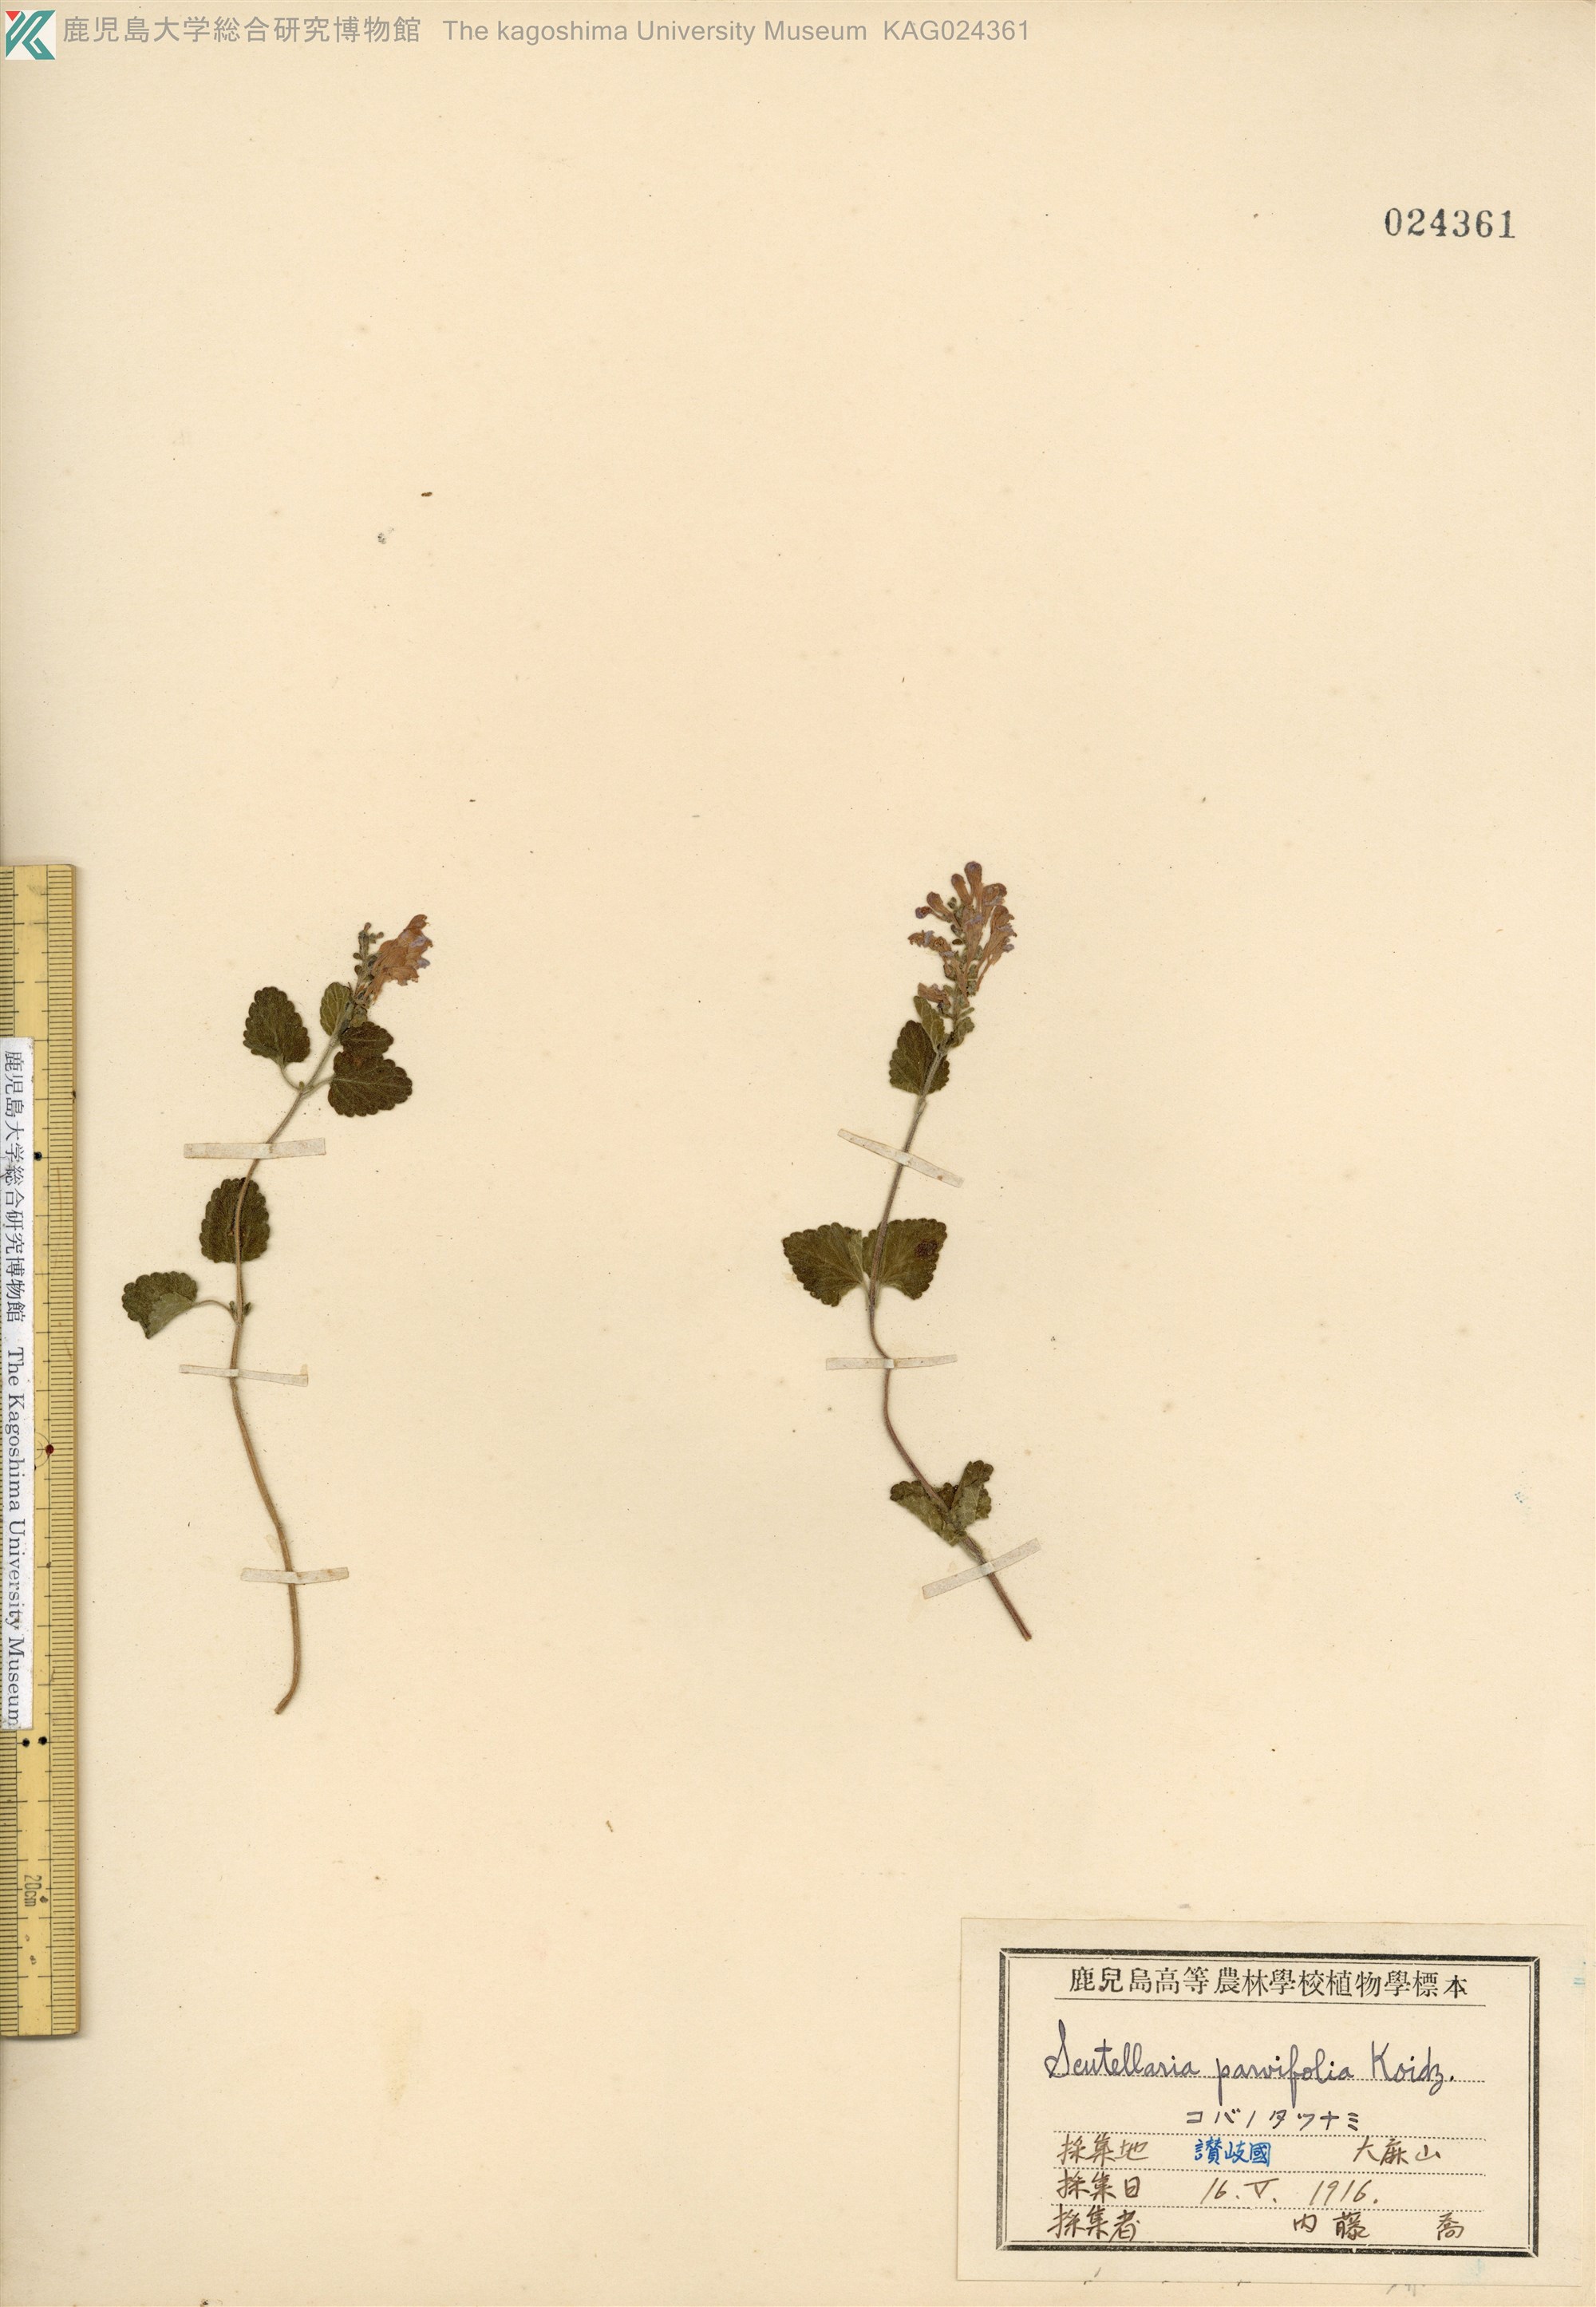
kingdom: Plantae
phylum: Tracheophyta
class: Magnoliopsida
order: Lamiales
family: Lamiaceae
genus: Scutellaria
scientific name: Scutellaria indica
